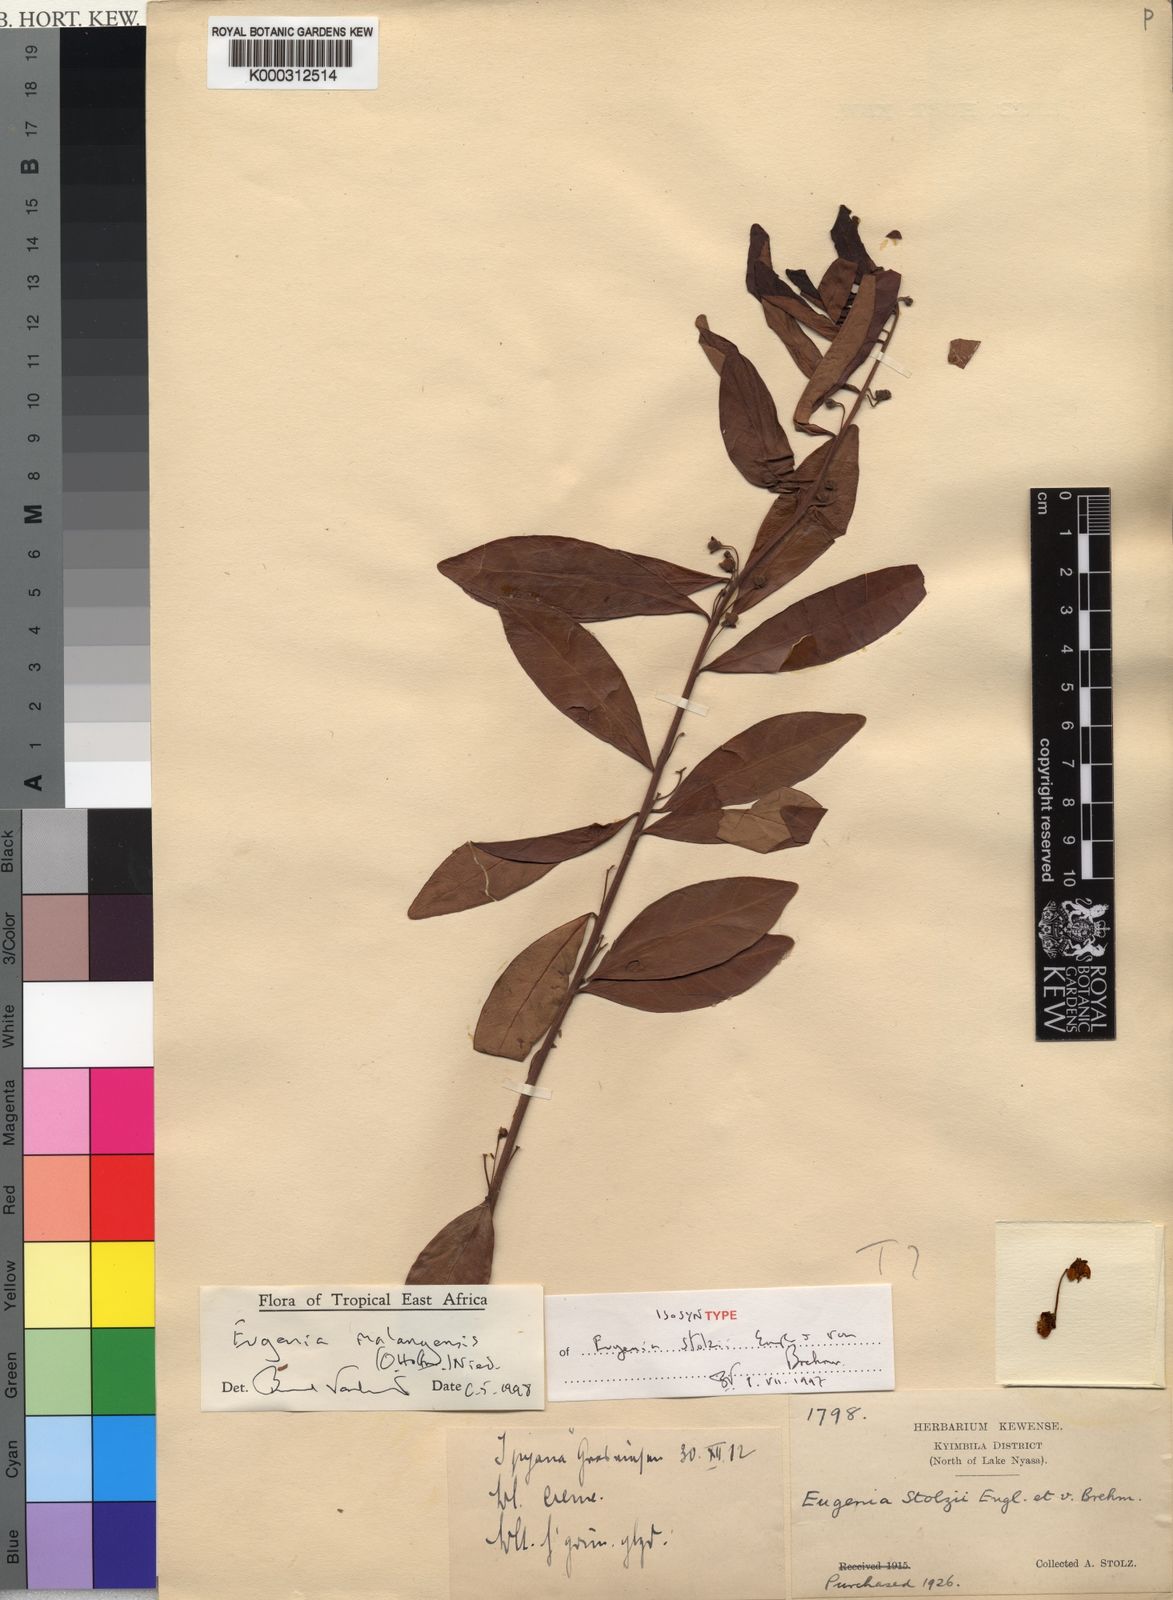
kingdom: Plantae
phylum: Tracheophyta
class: Magnoliopsida
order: Myrtales
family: Myrtaceae
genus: Eugenia
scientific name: Eugenia malangensis
